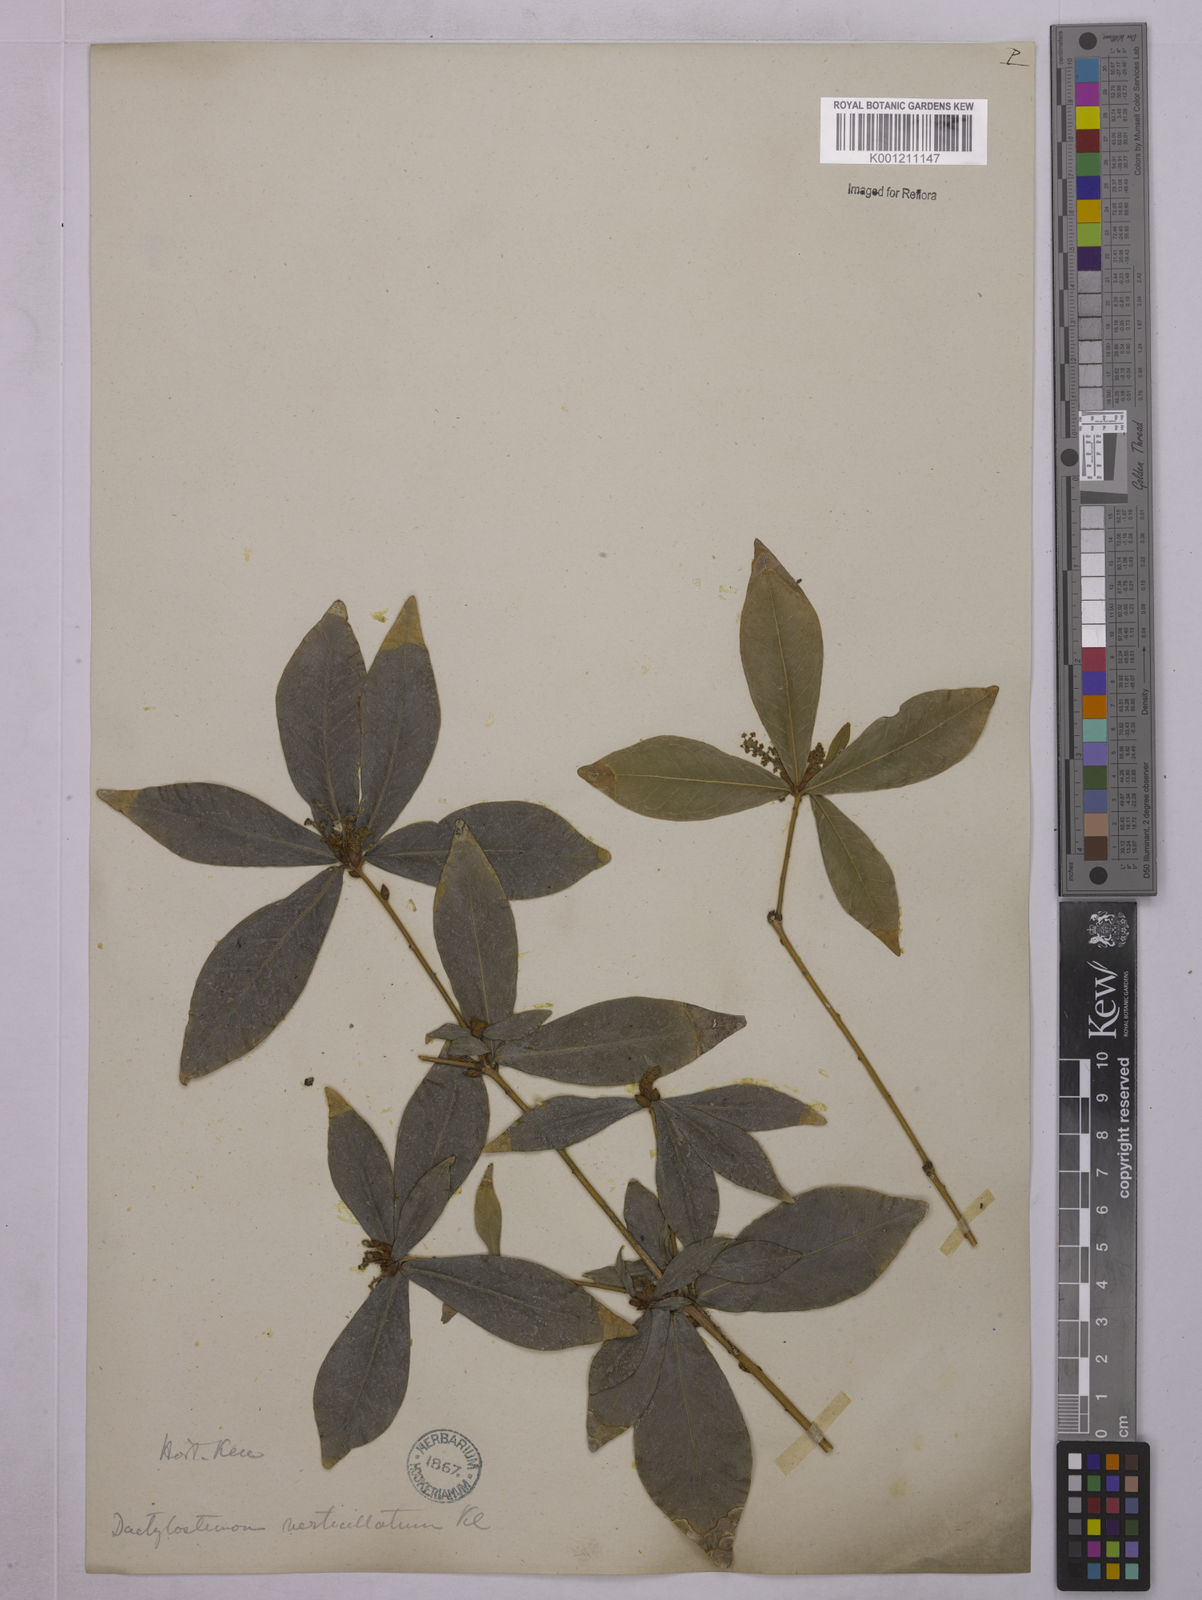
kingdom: Plantae
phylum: Tracheophyta
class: Magnoliopsida
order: Malpighiales
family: Euphorbiaceae
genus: Actinostemon
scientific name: Actinostemon verticillatus
